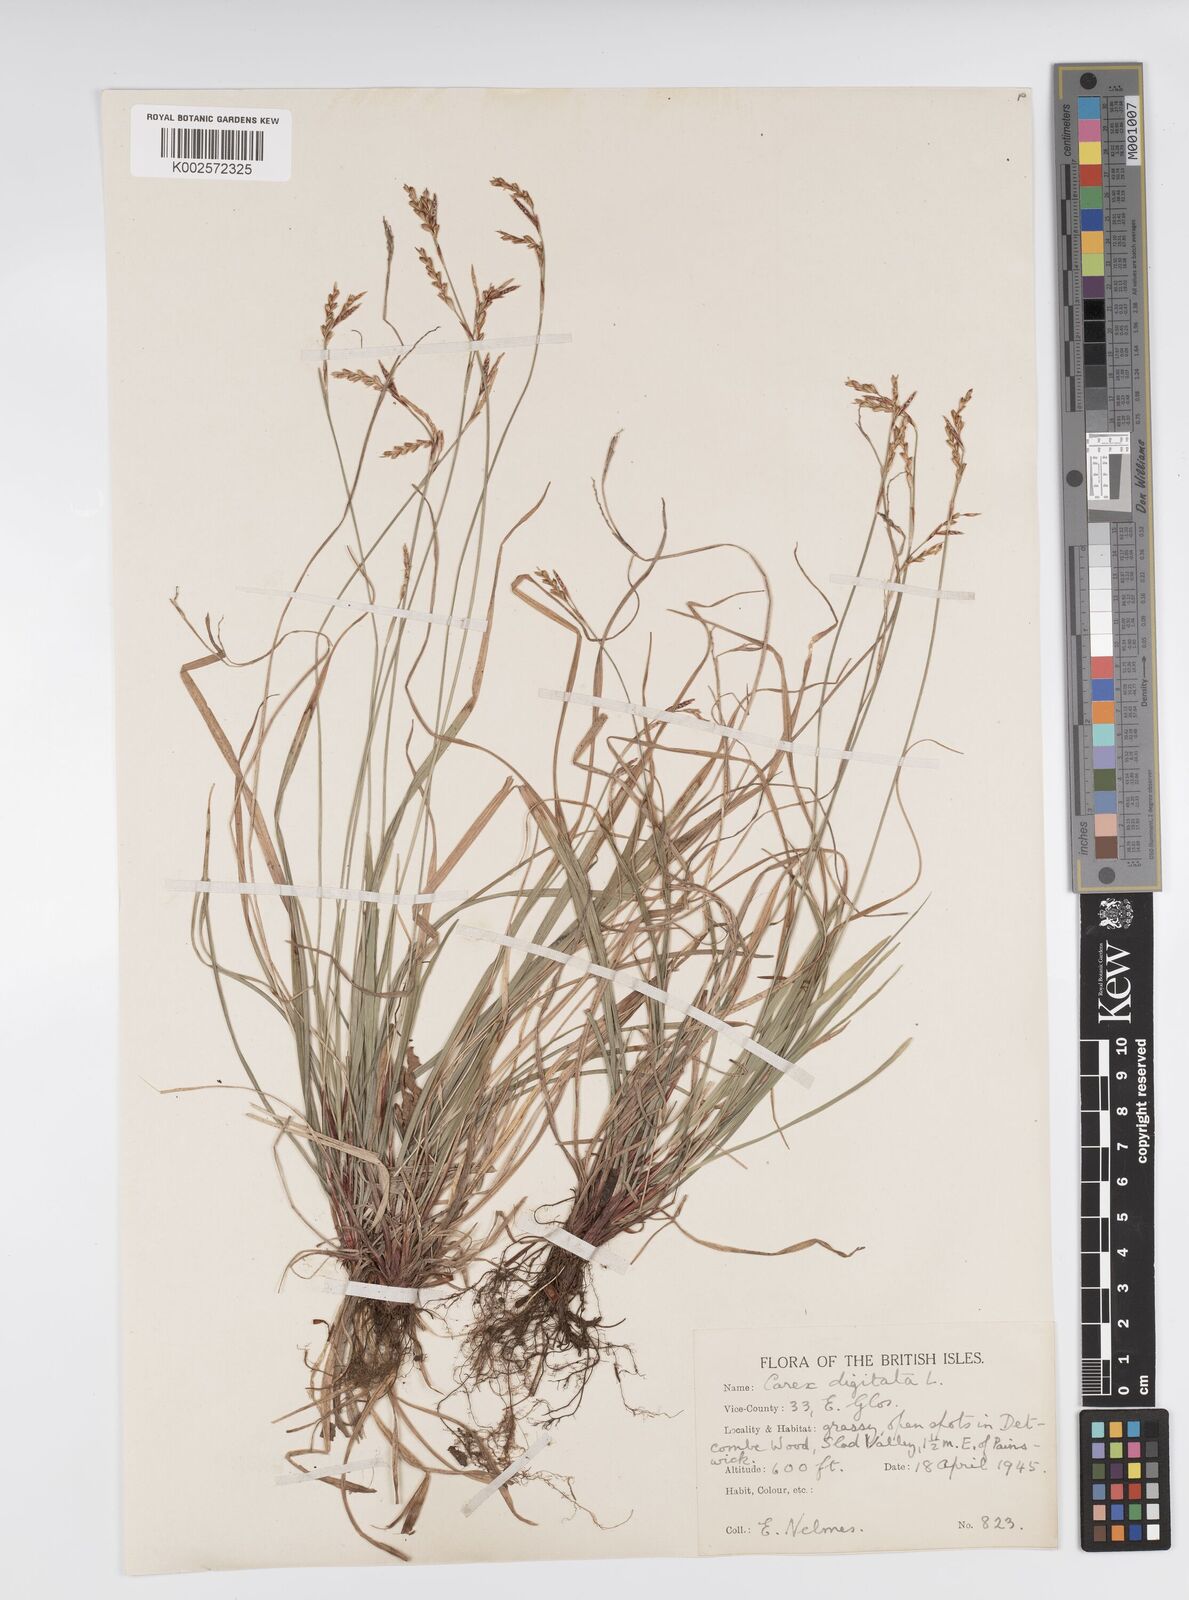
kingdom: Plantae
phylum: Tracheophyta
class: Liliopsida
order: Poales
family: Cyperaceae
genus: Carex
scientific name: Carex digitata
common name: Fingered sedge
